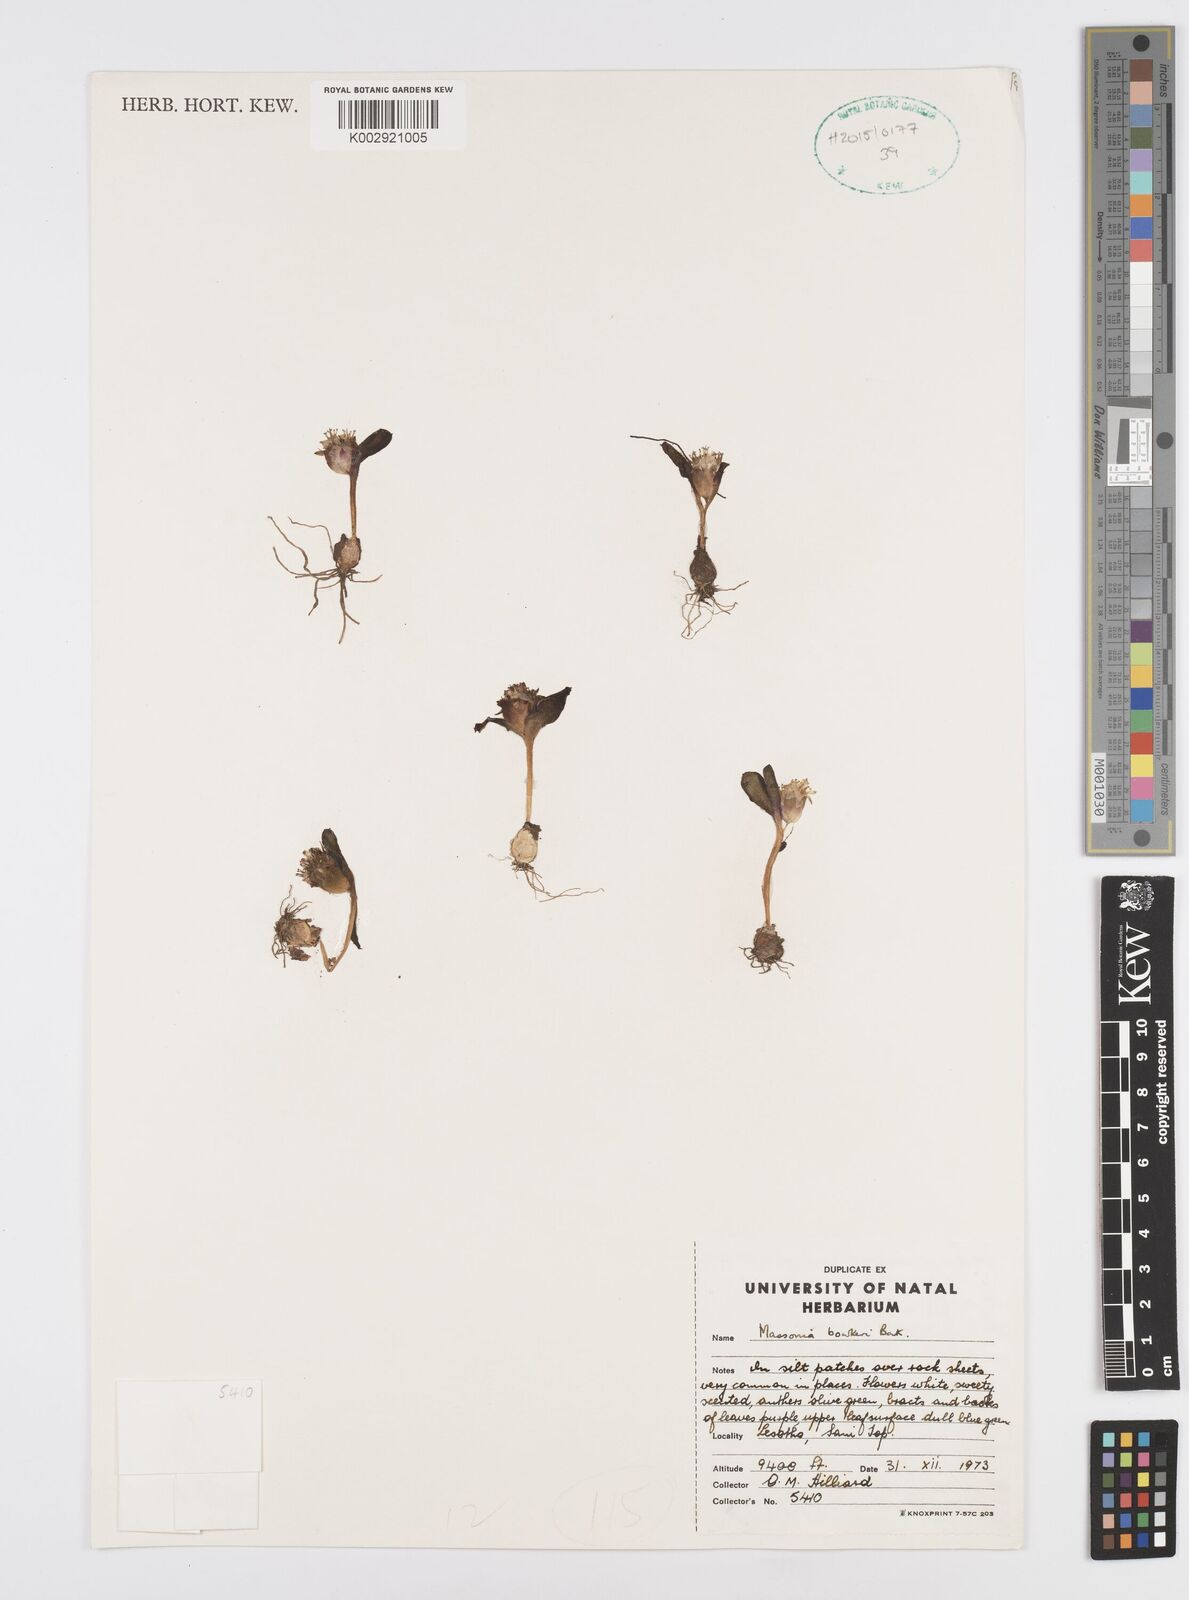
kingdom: Plantae
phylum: Tracheophyta
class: Liliopsida
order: Asparagales
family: Asparagaceae
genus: Massonia
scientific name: Massonia
